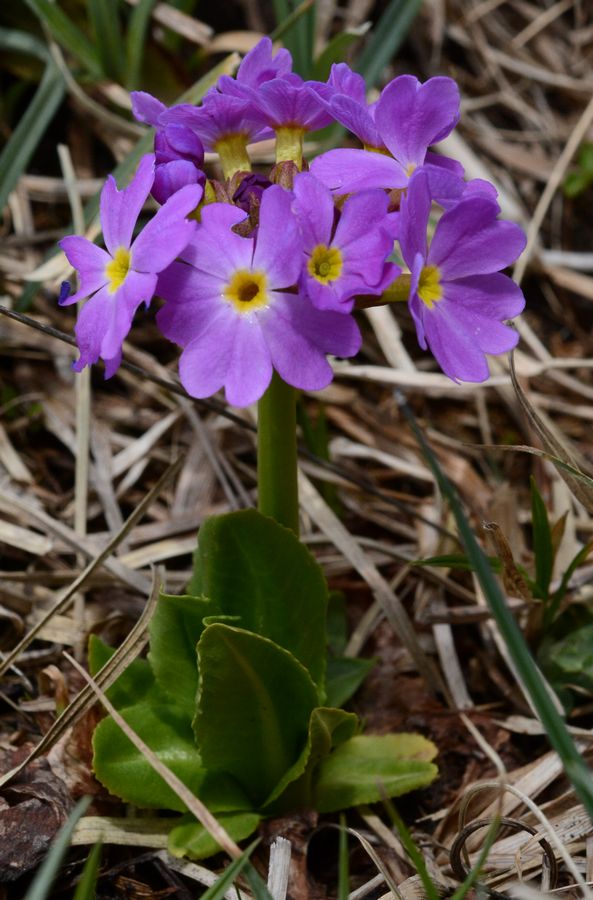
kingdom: Plantae
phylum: Tracheophyta
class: Magnoliopsida
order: Ericales
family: Primulaceae
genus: Primula
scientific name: Primula auriculata
